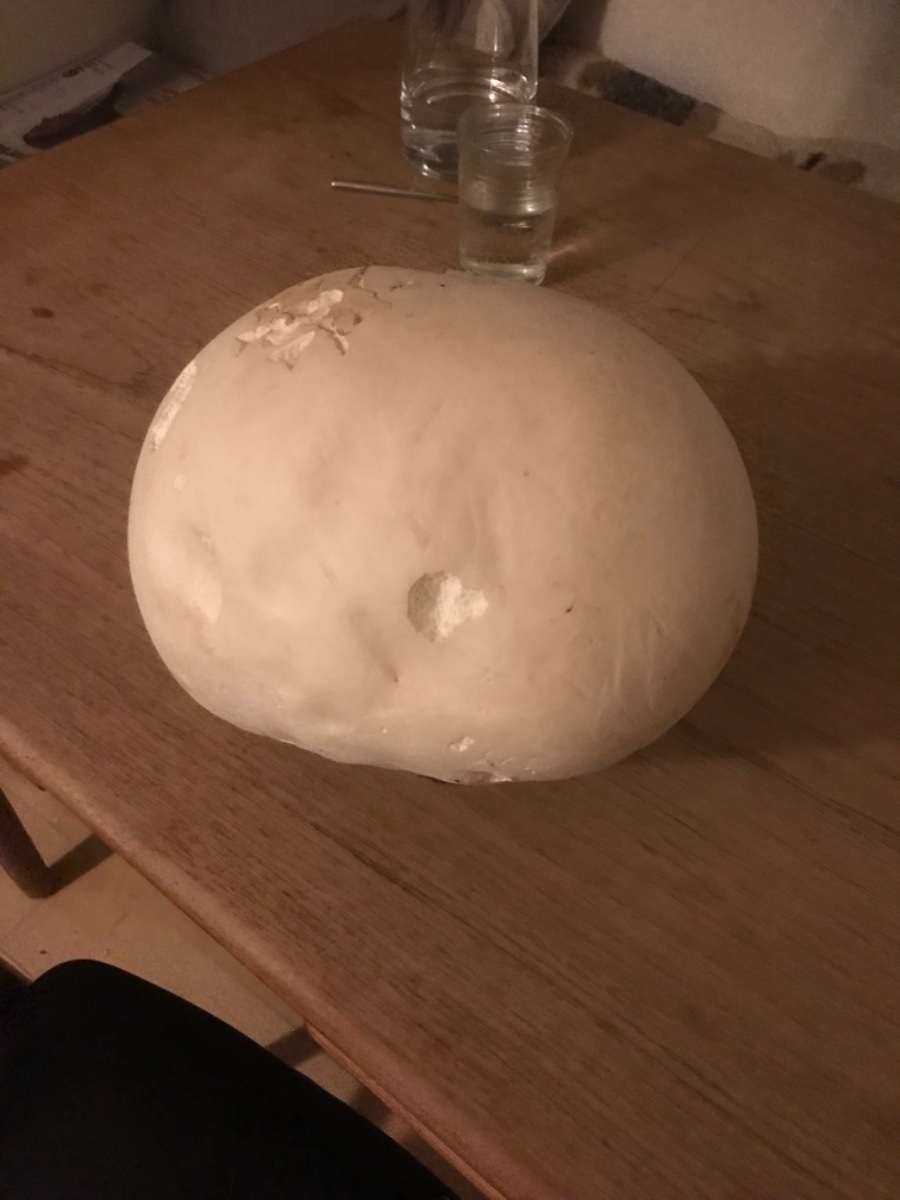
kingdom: Fungi
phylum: Basidiomycota
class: Agaricomycetes
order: Agaricales
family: Lycoperdaceae
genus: Calvatia
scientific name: Calvatia gigantea
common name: kæmpestøvbold
